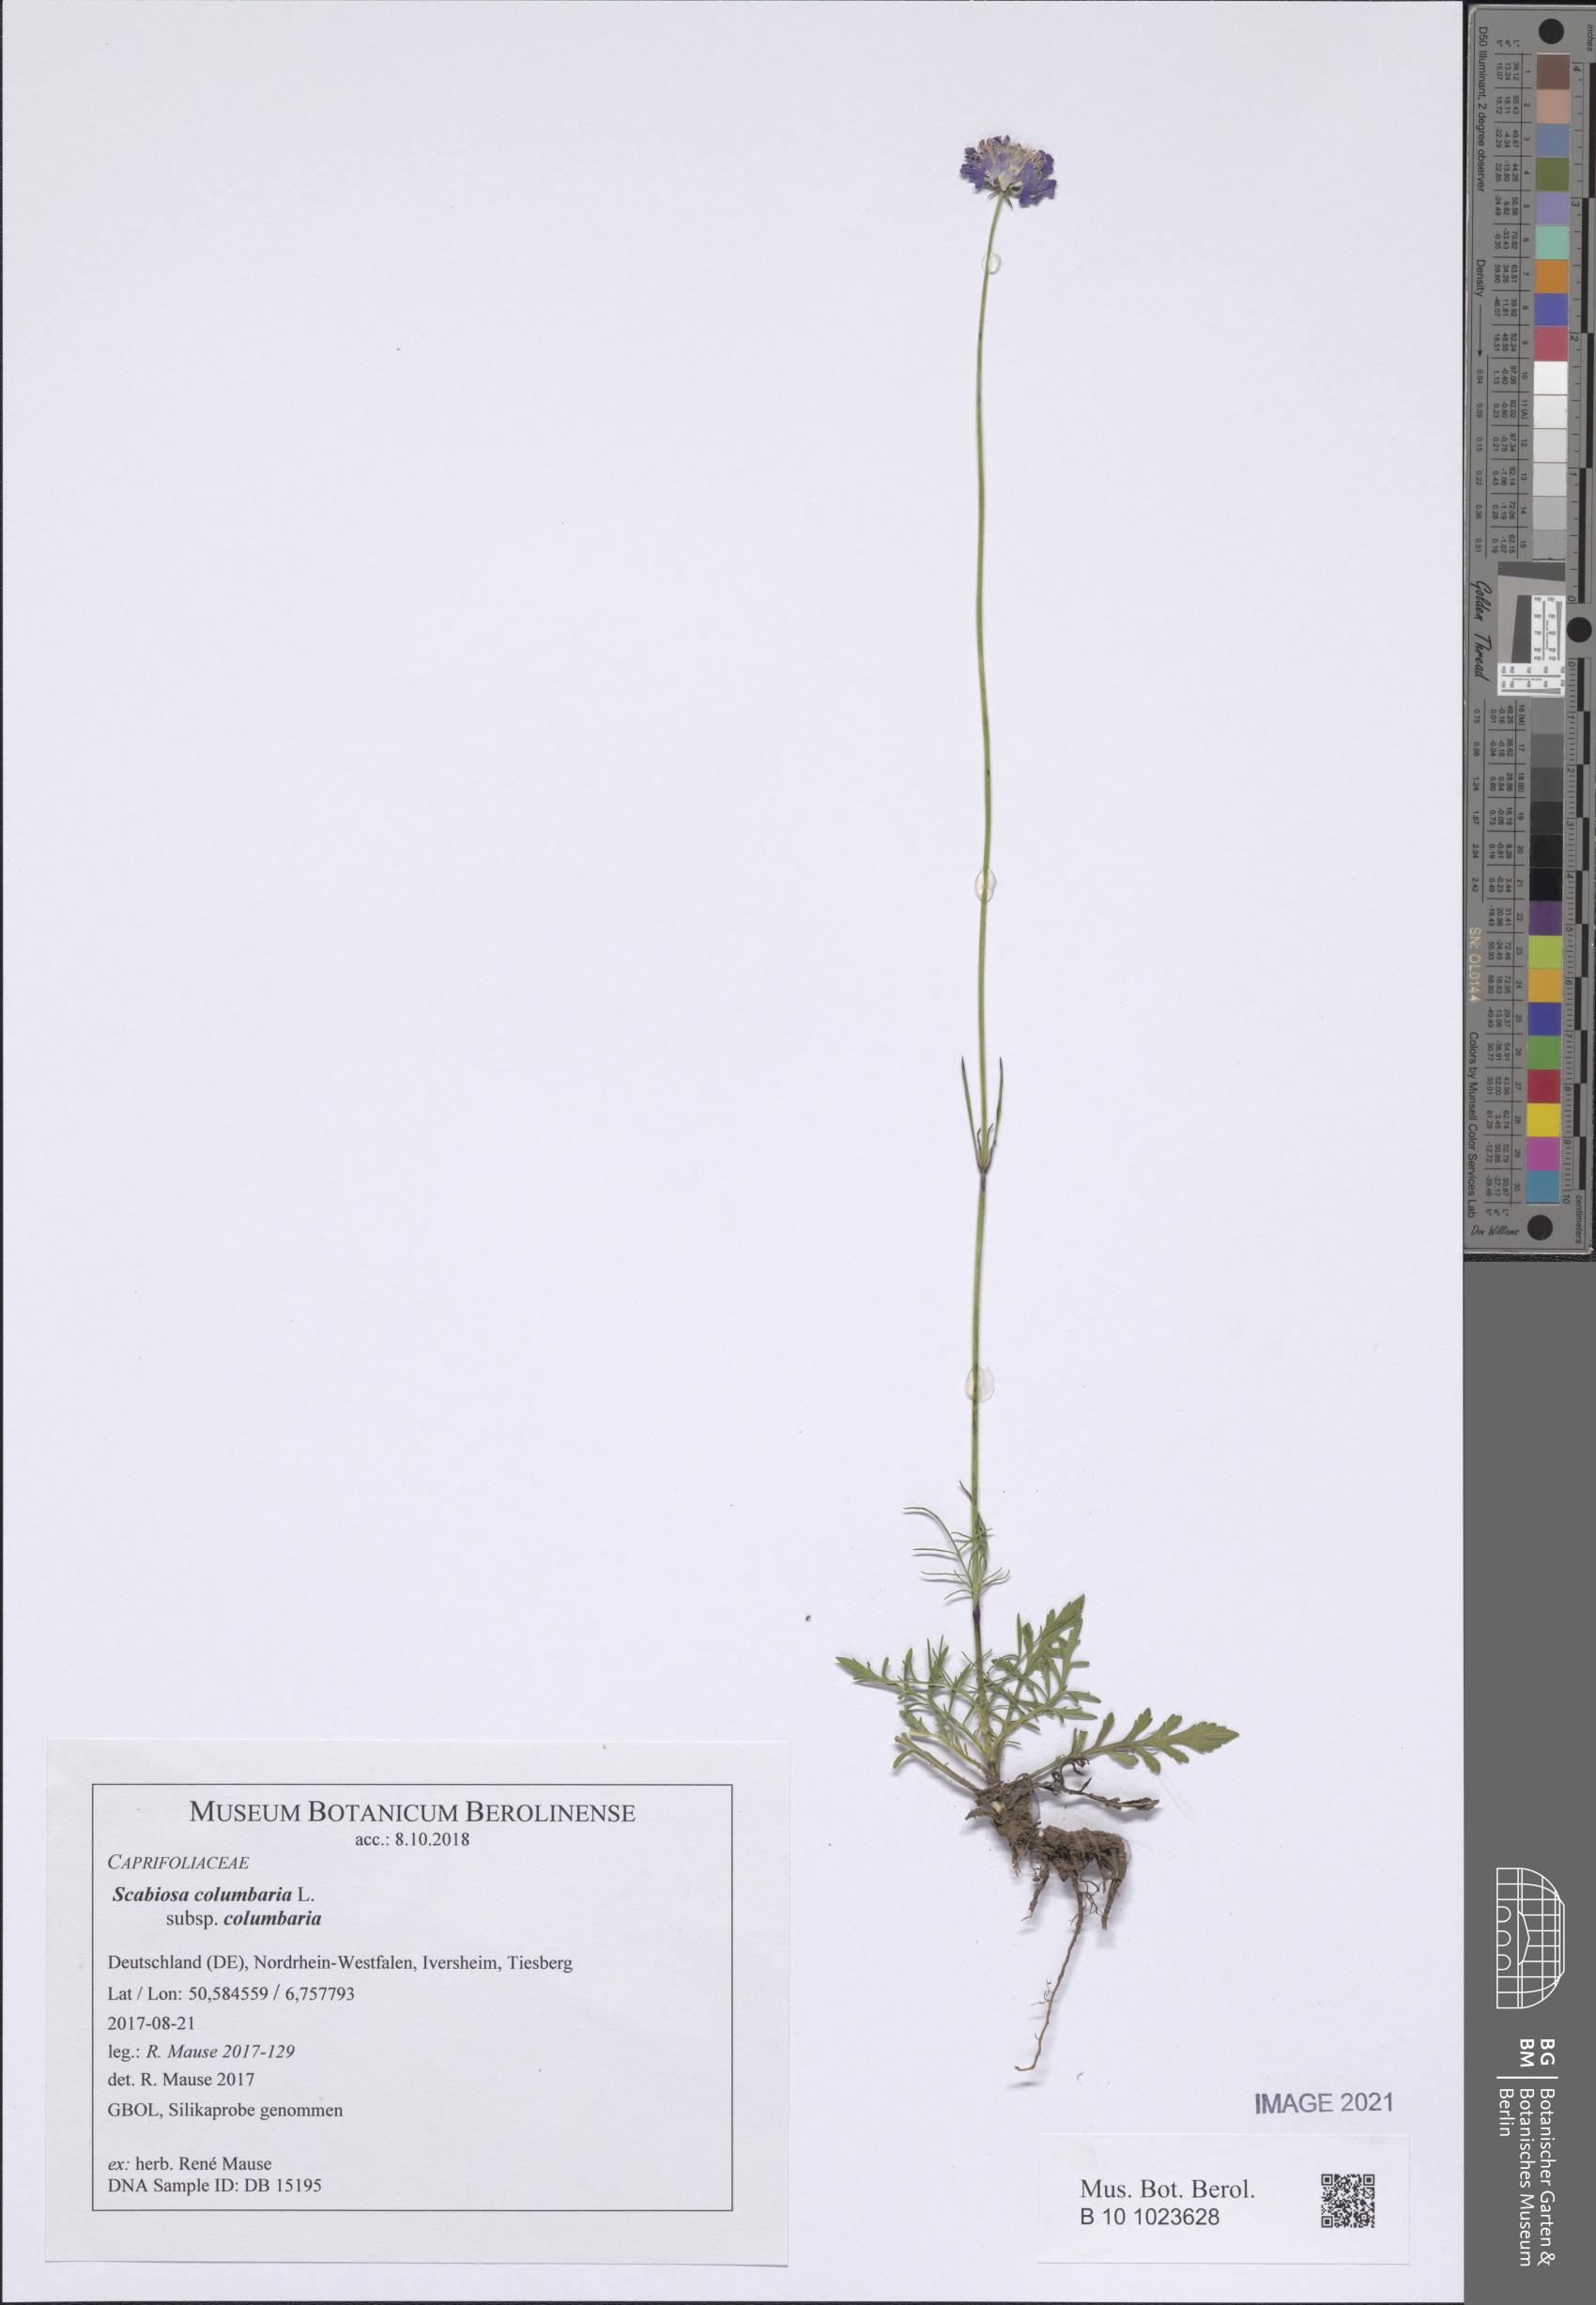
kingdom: Plantae
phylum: Tracheophyta
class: Magnoliopsida
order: Dipsacales
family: Caprifoliaceae
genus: Scabiosa
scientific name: Scabiosa columbaria
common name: Small scabious
